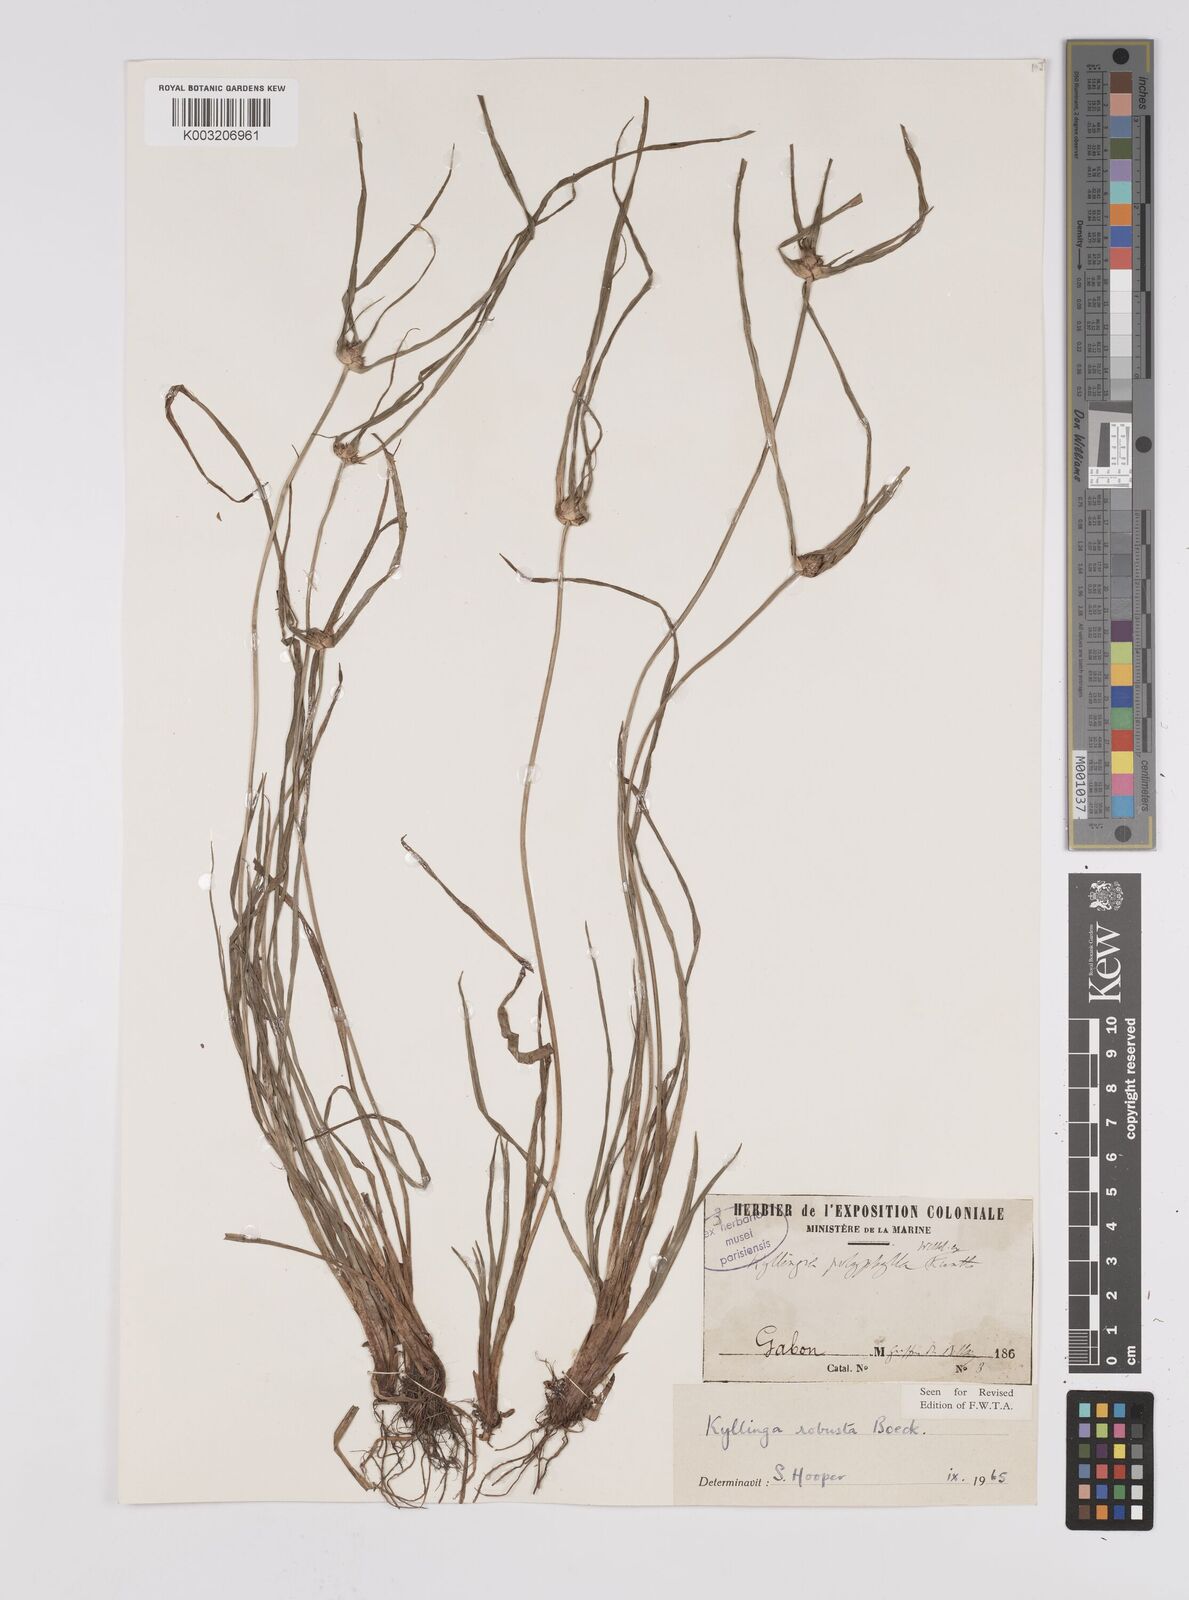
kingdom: Plantae
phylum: Tracheophyta
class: Liliopsida
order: Poales
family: Cyperaceae
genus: Cyperus
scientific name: Cyperus
